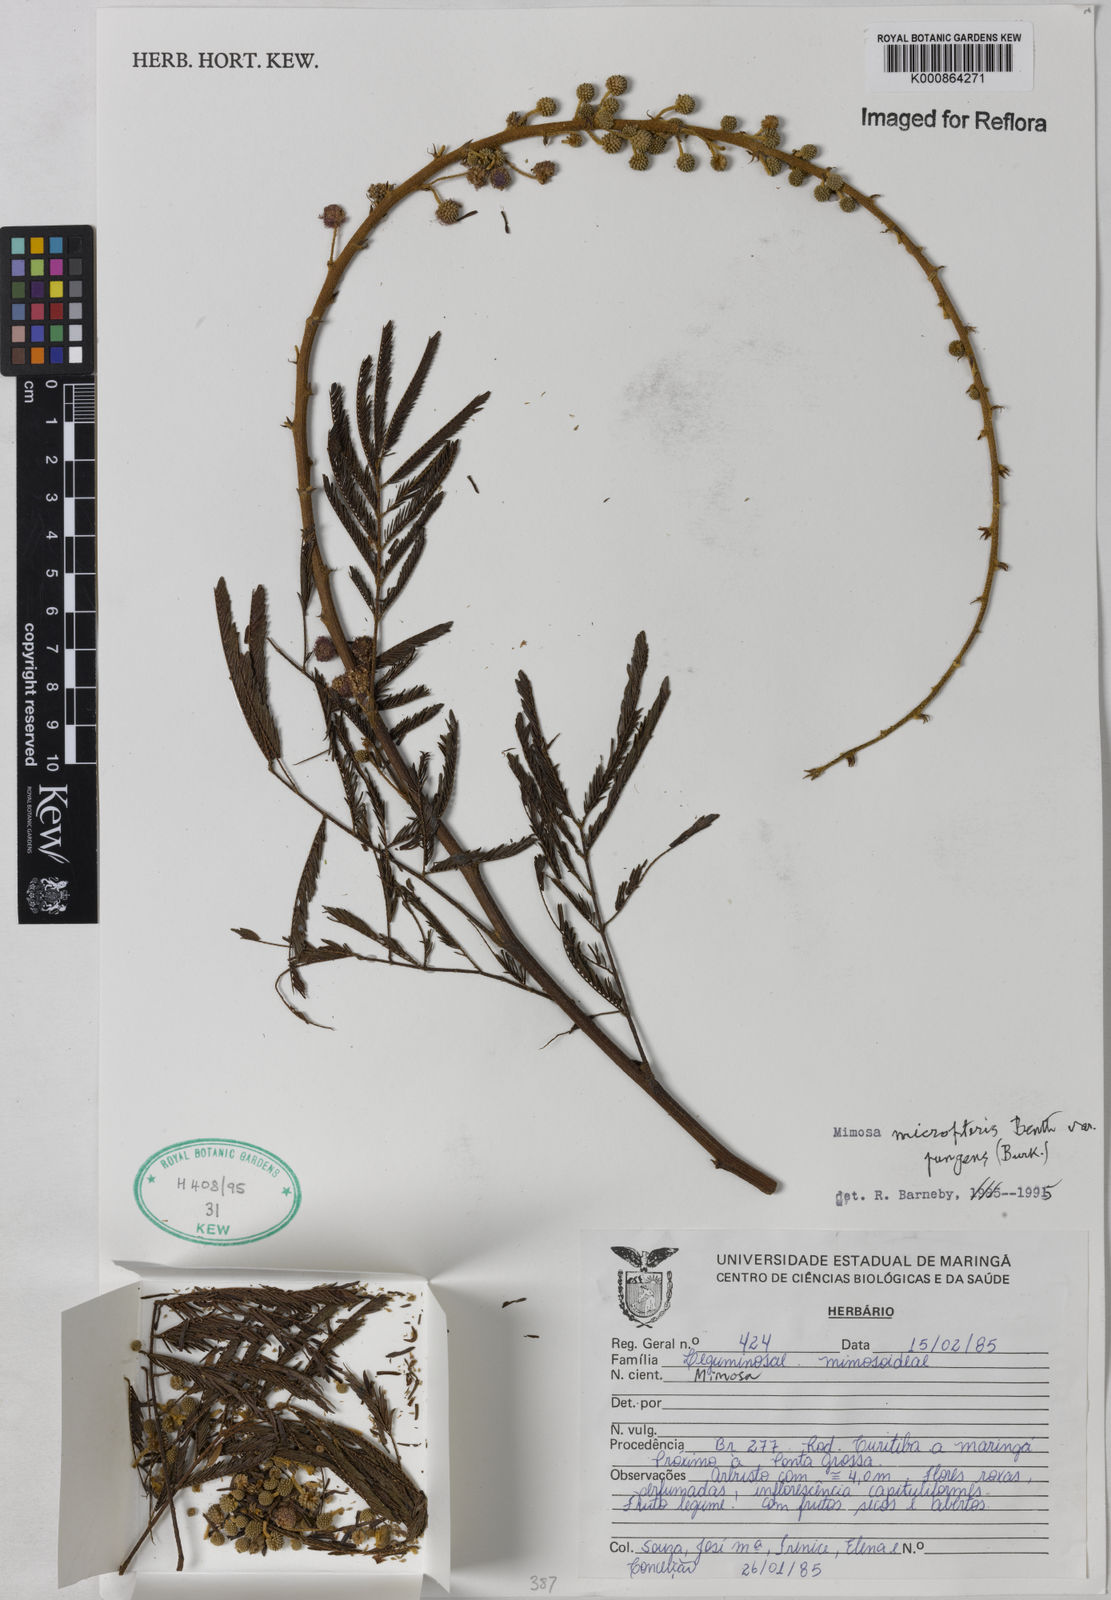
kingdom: Plantae
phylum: Tracheophyta
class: Magnoliopsida
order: Fabales
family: Fabaceae
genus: Mimosa
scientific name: Mimosa micropteris
